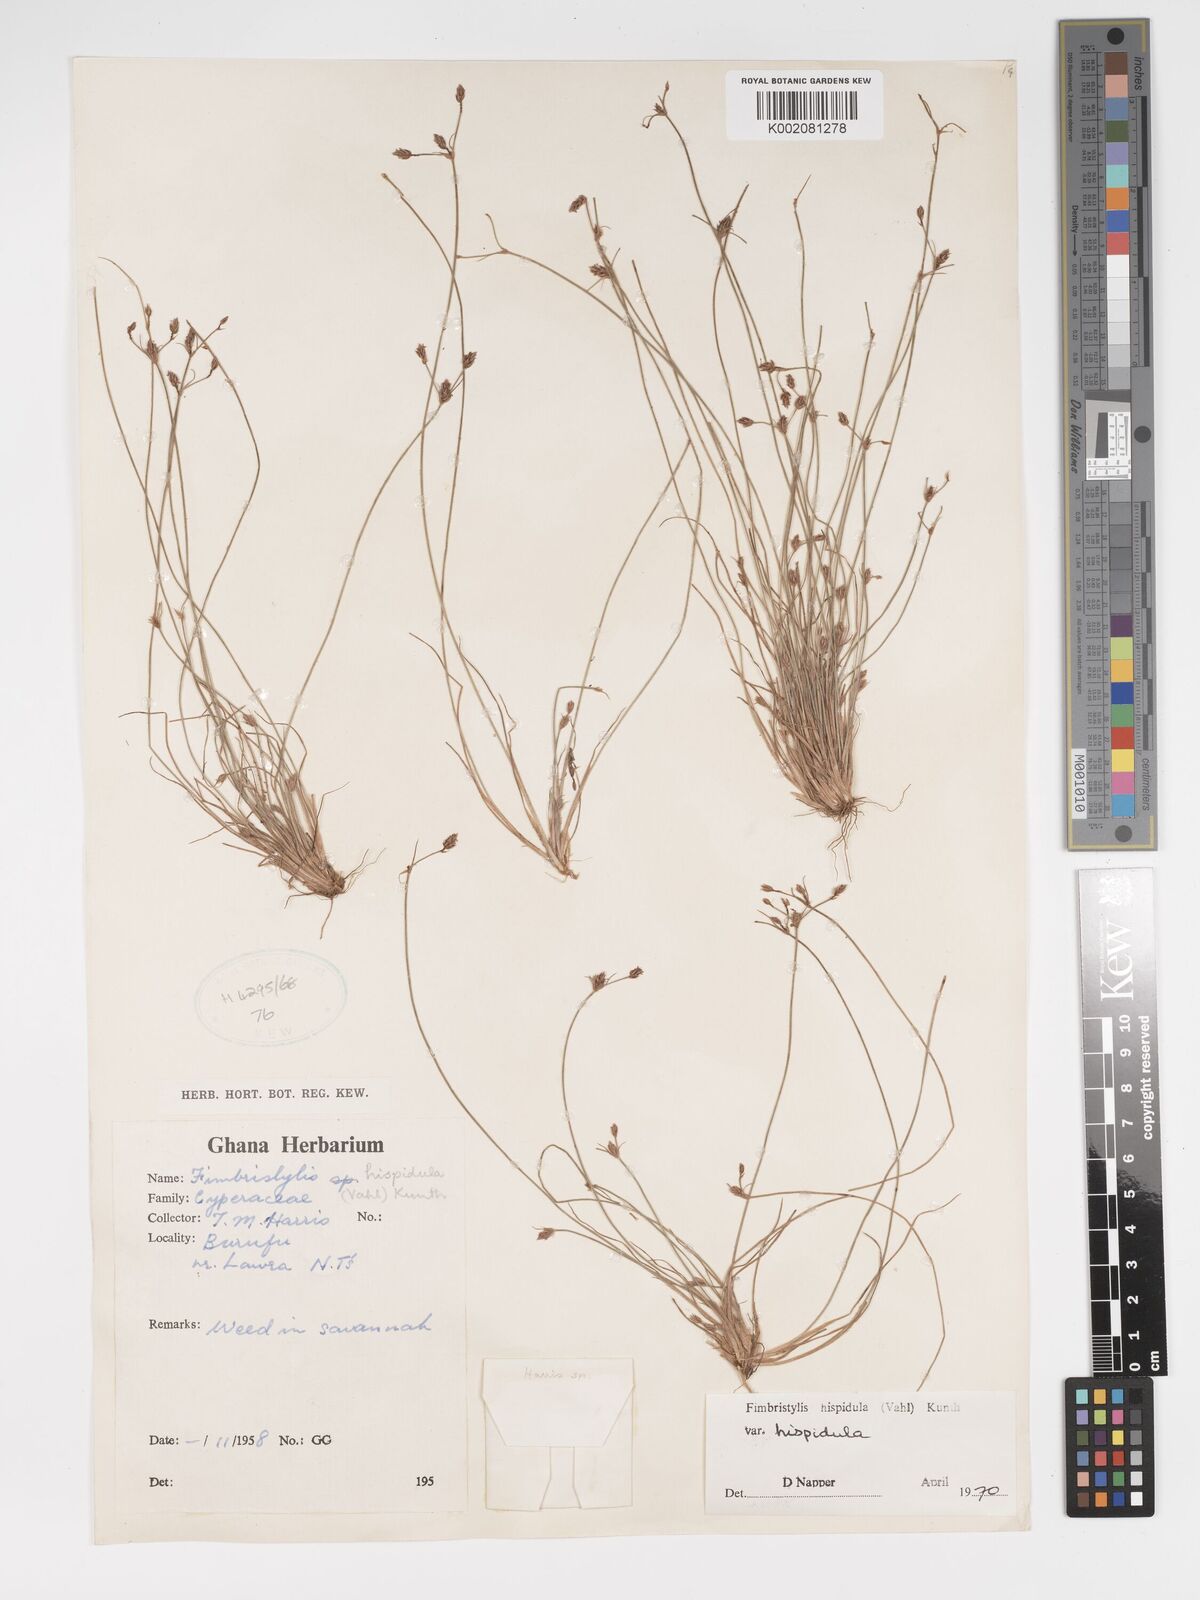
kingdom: Plantae
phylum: Tracheophyta
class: Liliopsida
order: Poales
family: Cyperaceae
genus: Bulbostylis
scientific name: Bulbostylis hispidula
